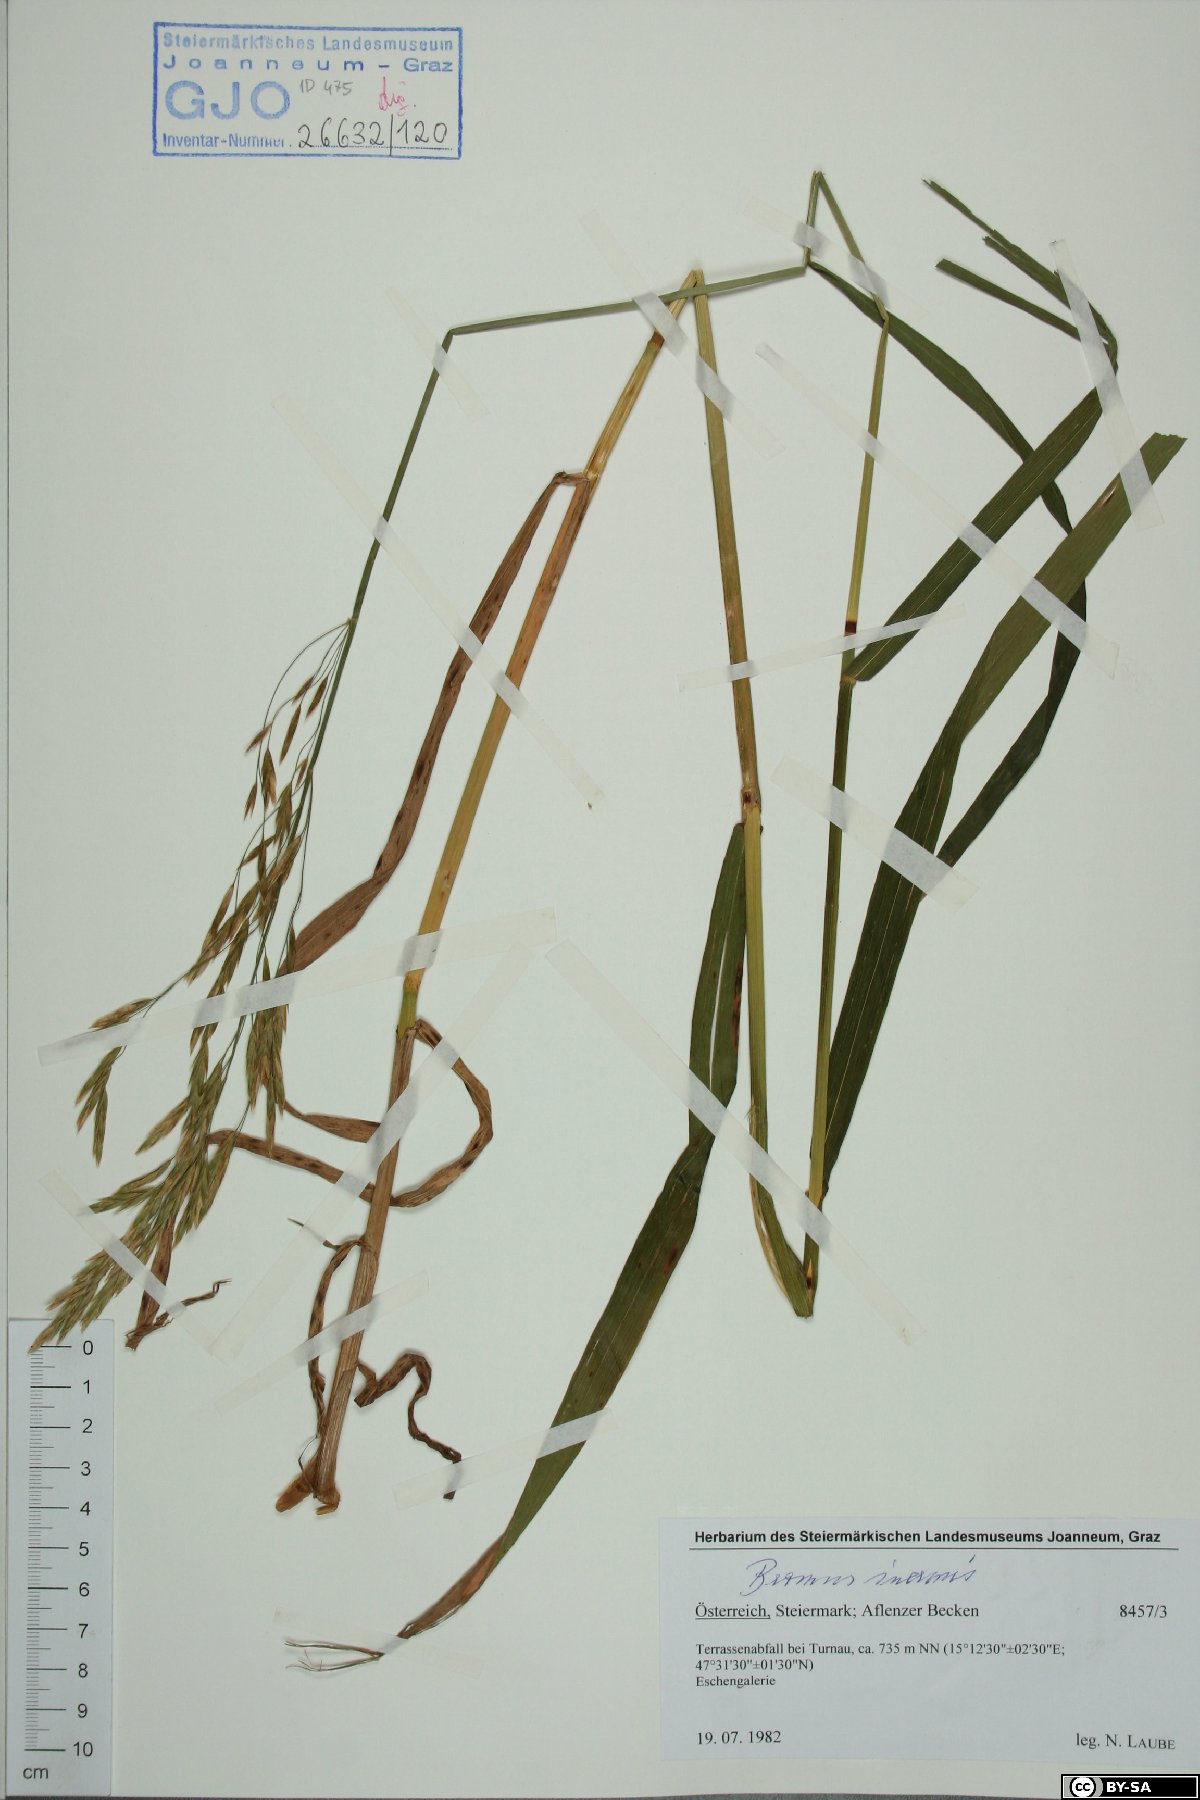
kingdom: Plantae
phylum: Tracheophyta
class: Liliopsida
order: Poales
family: Poaceae
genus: Bromus
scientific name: Bromus inermis
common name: Smooth brome
